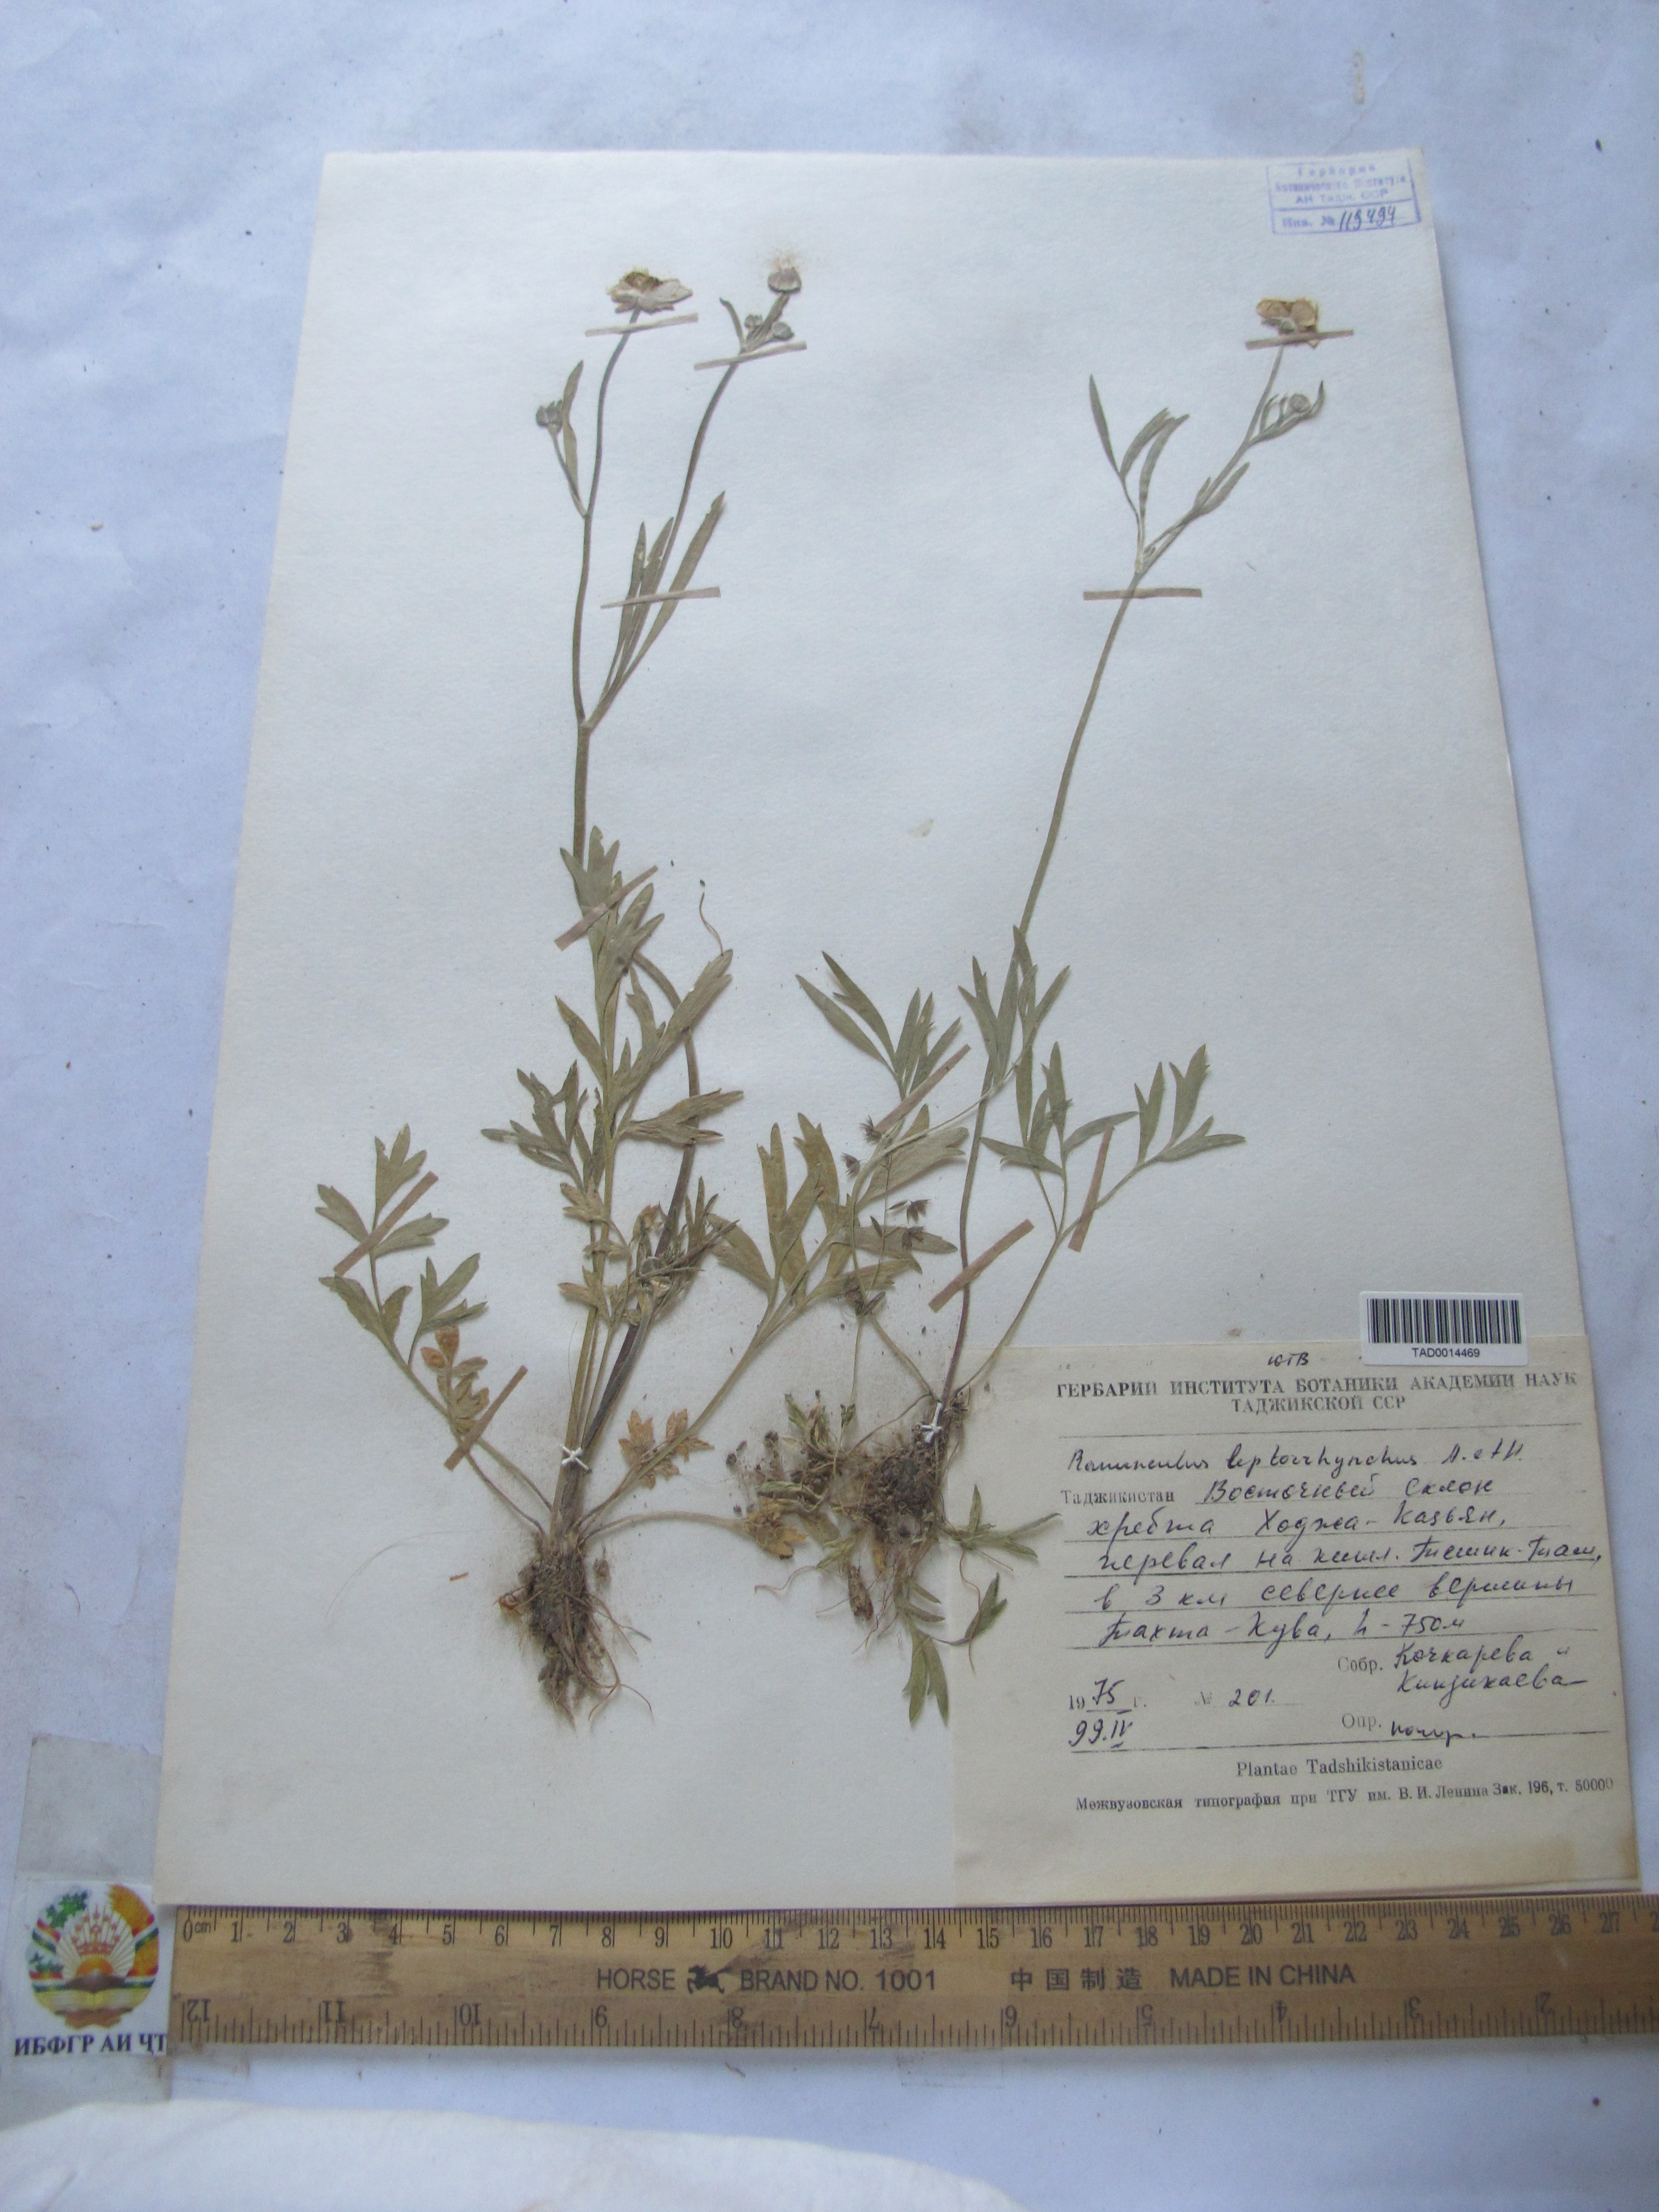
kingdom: Plantae
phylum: Tracheophyta
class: Magnoliopsida
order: Ranunculales
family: Ranunculaceae
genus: Ranunculus
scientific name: Ranunculus leptorrhynchus
